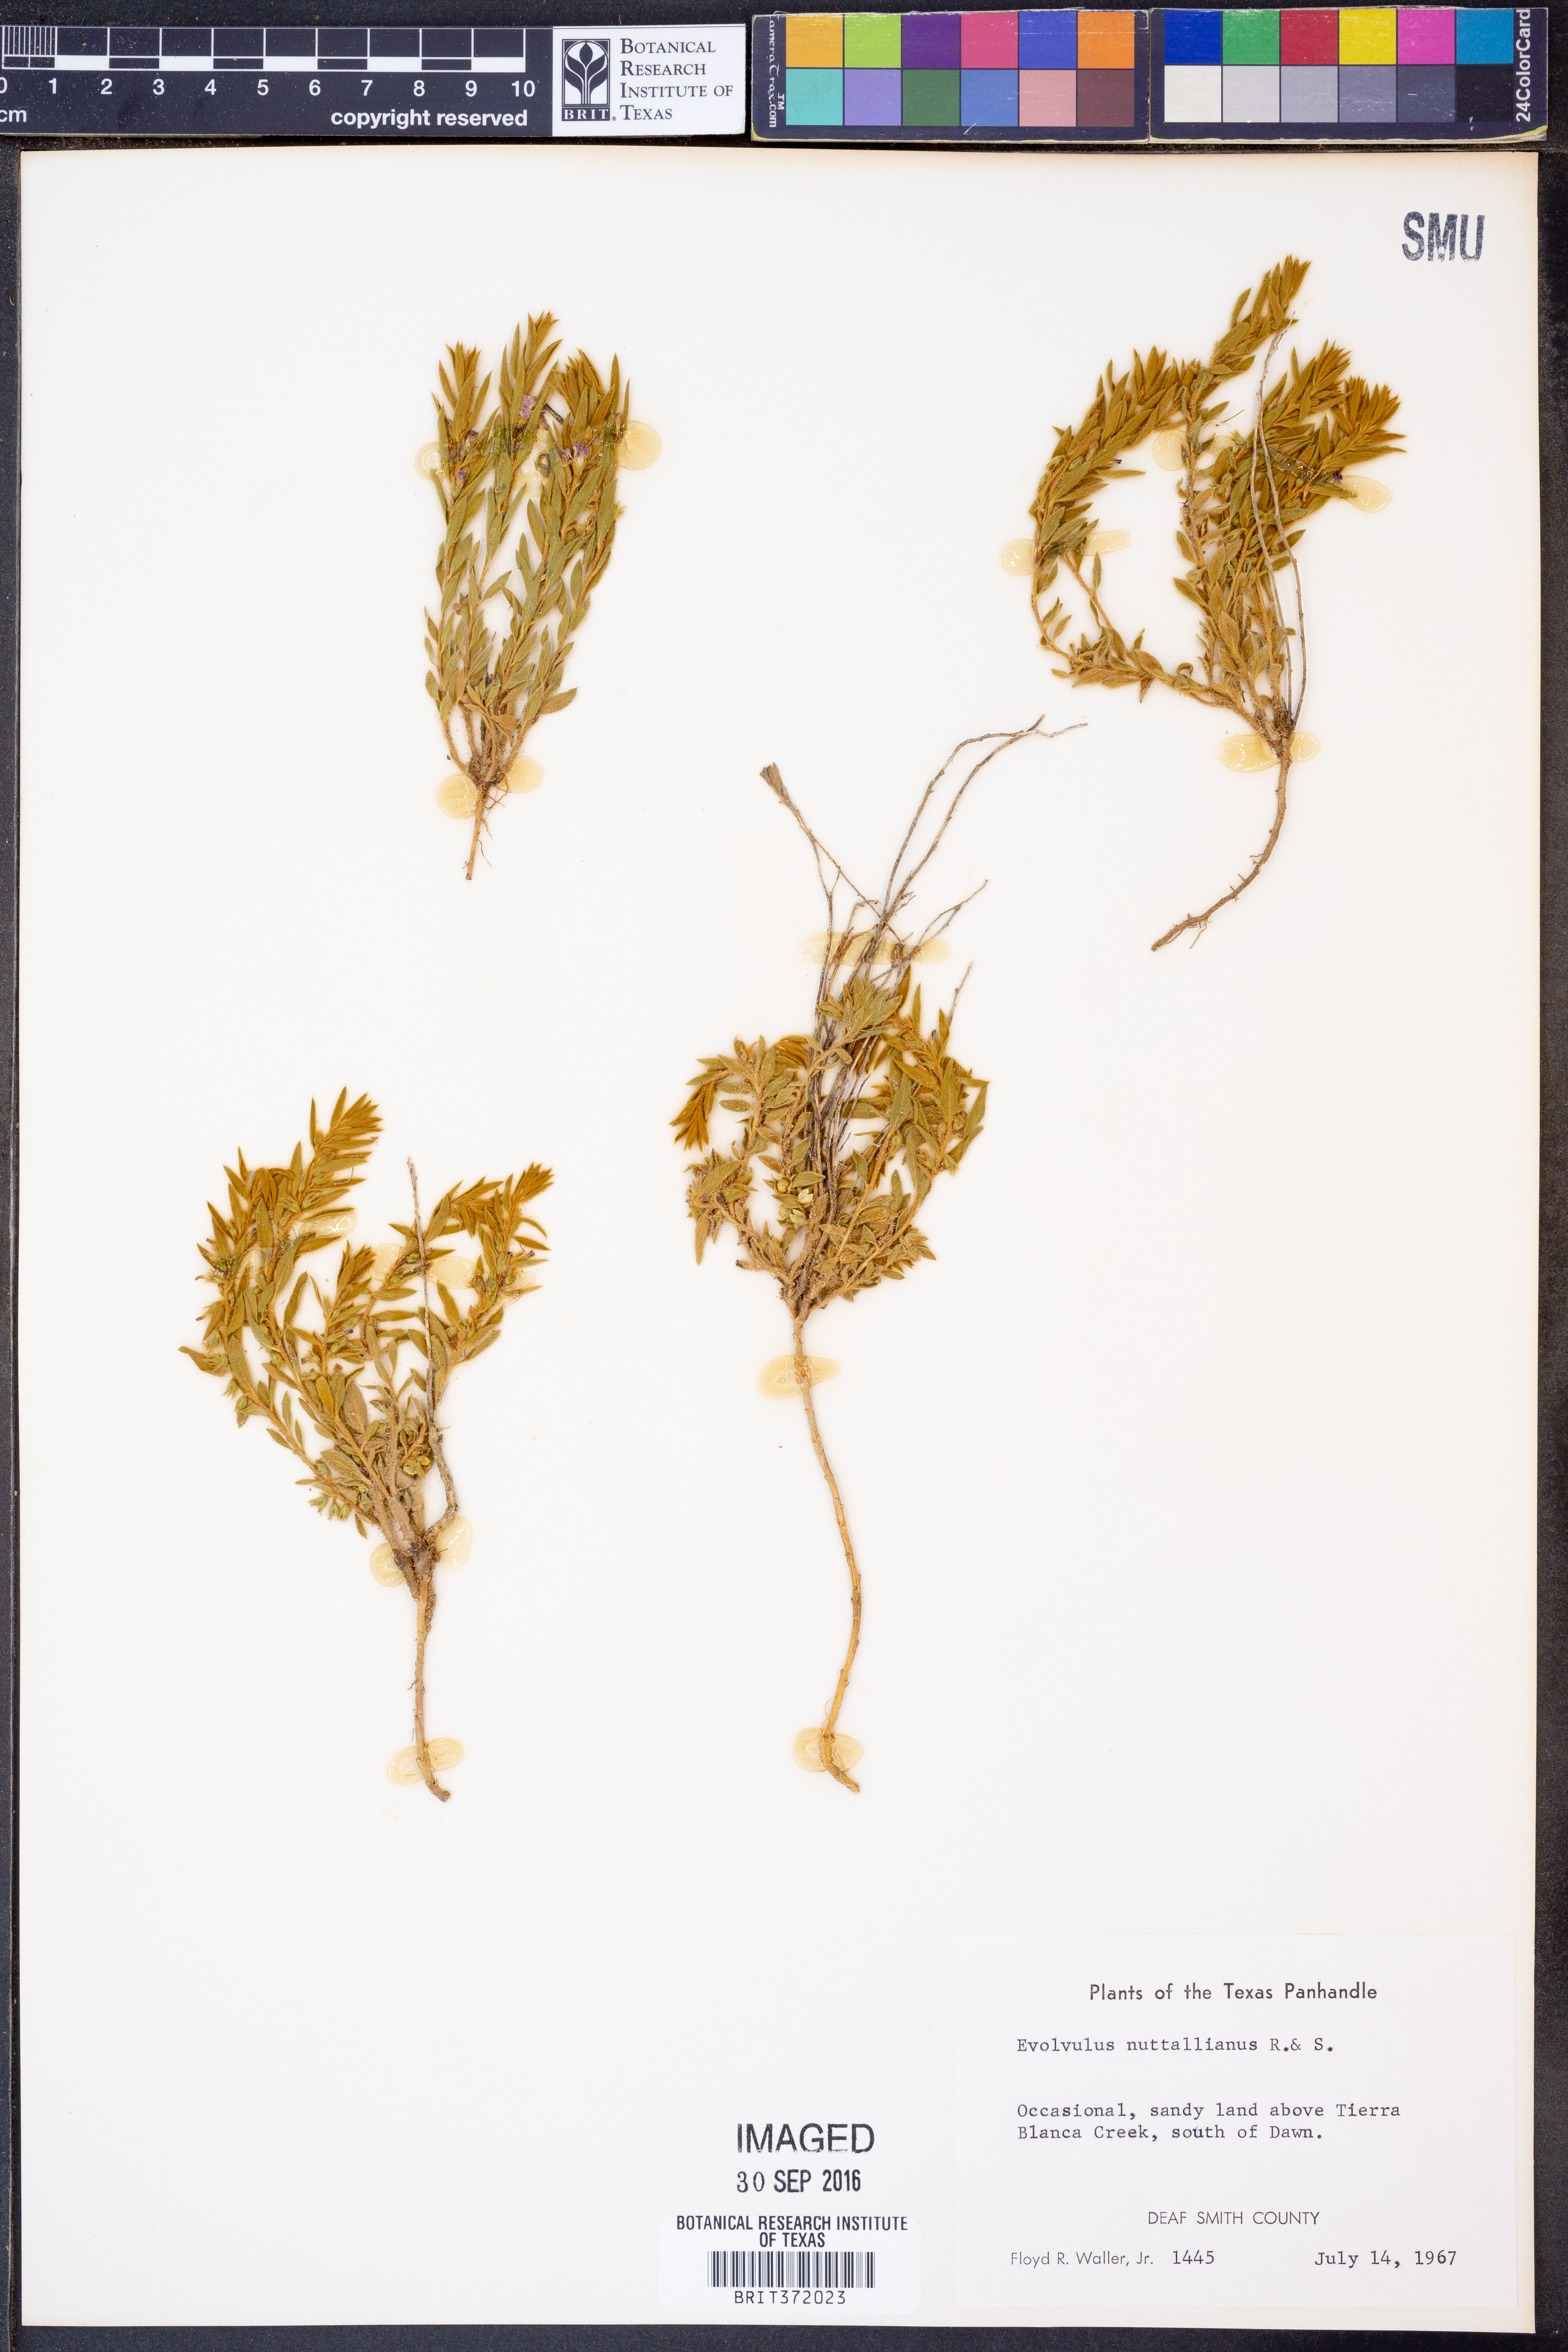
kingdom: Plantae
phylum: Tracheophyta
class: Magnoliopsida
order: Solanales
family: Convolvulaceae
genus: Evolvulus
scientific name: Evolvulus nuttallianus
